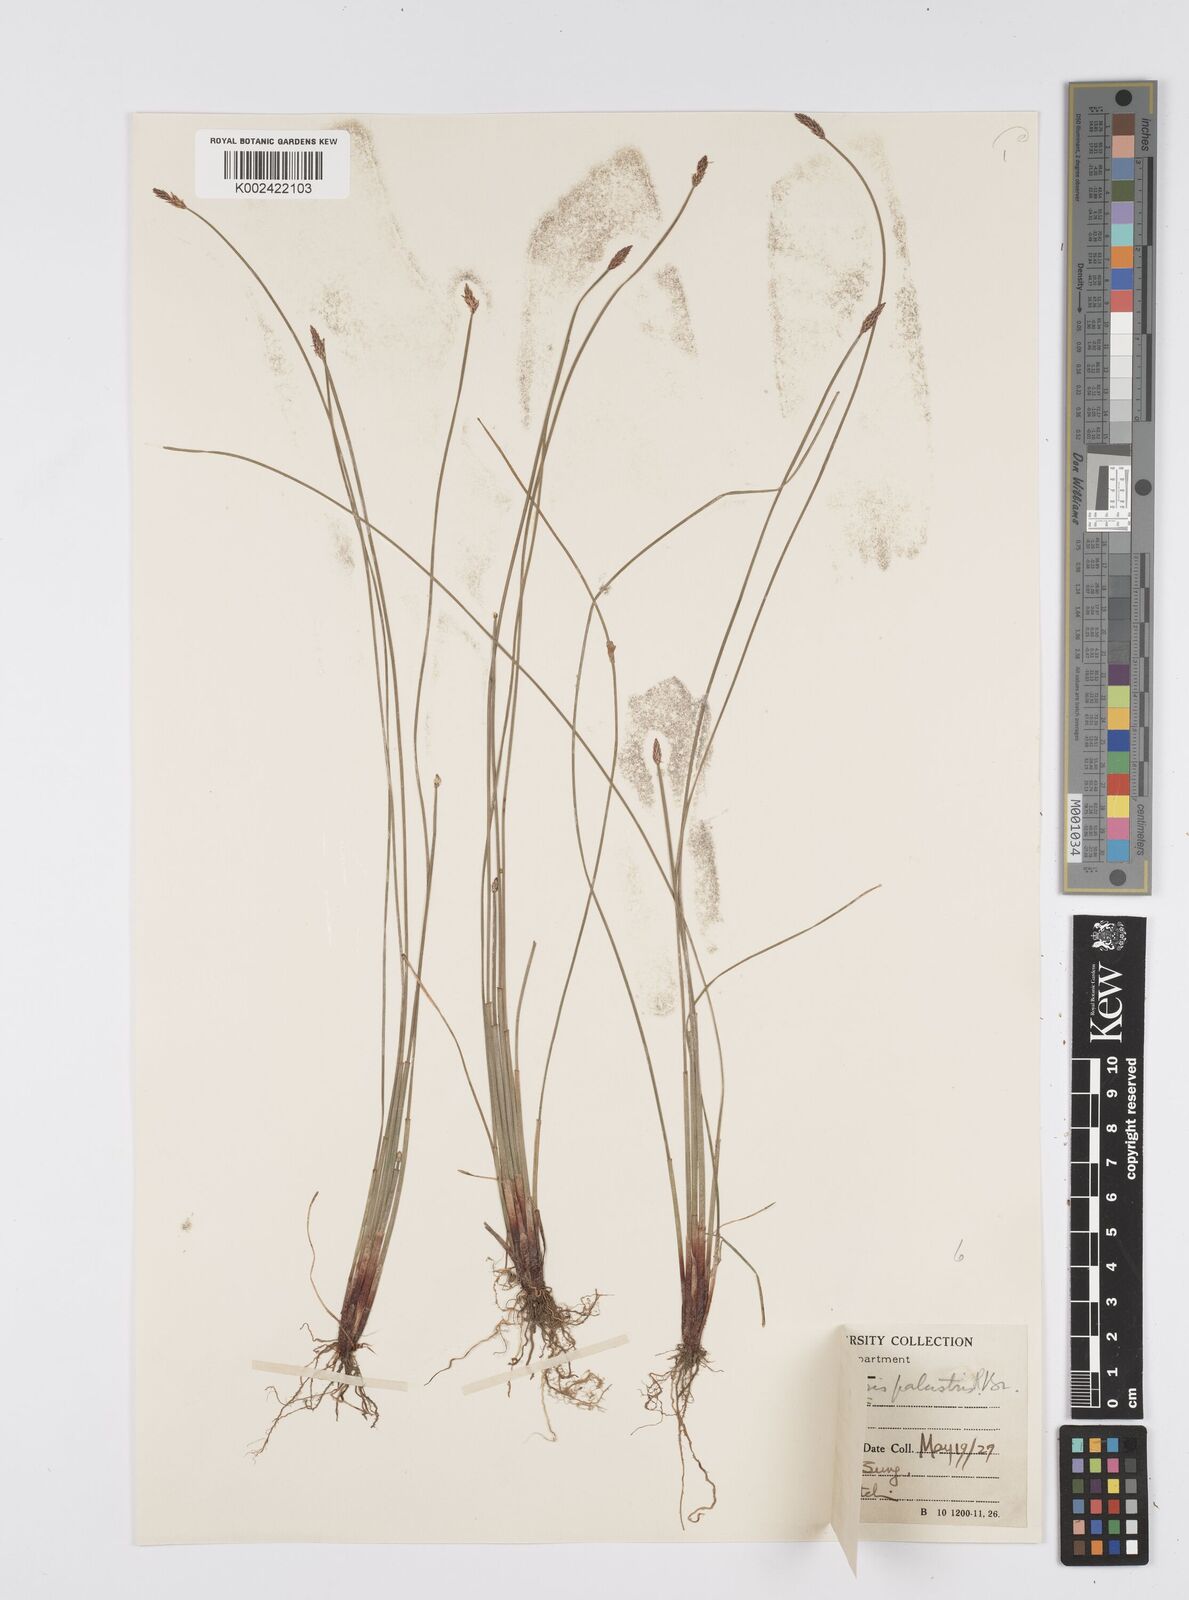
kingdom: Plantae
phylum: Tracheophyta
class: Liliopsida
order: Poales
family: Cyperaceae
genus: Eleocharis
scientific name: Eleocharis palustris
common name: Common spike-rush
